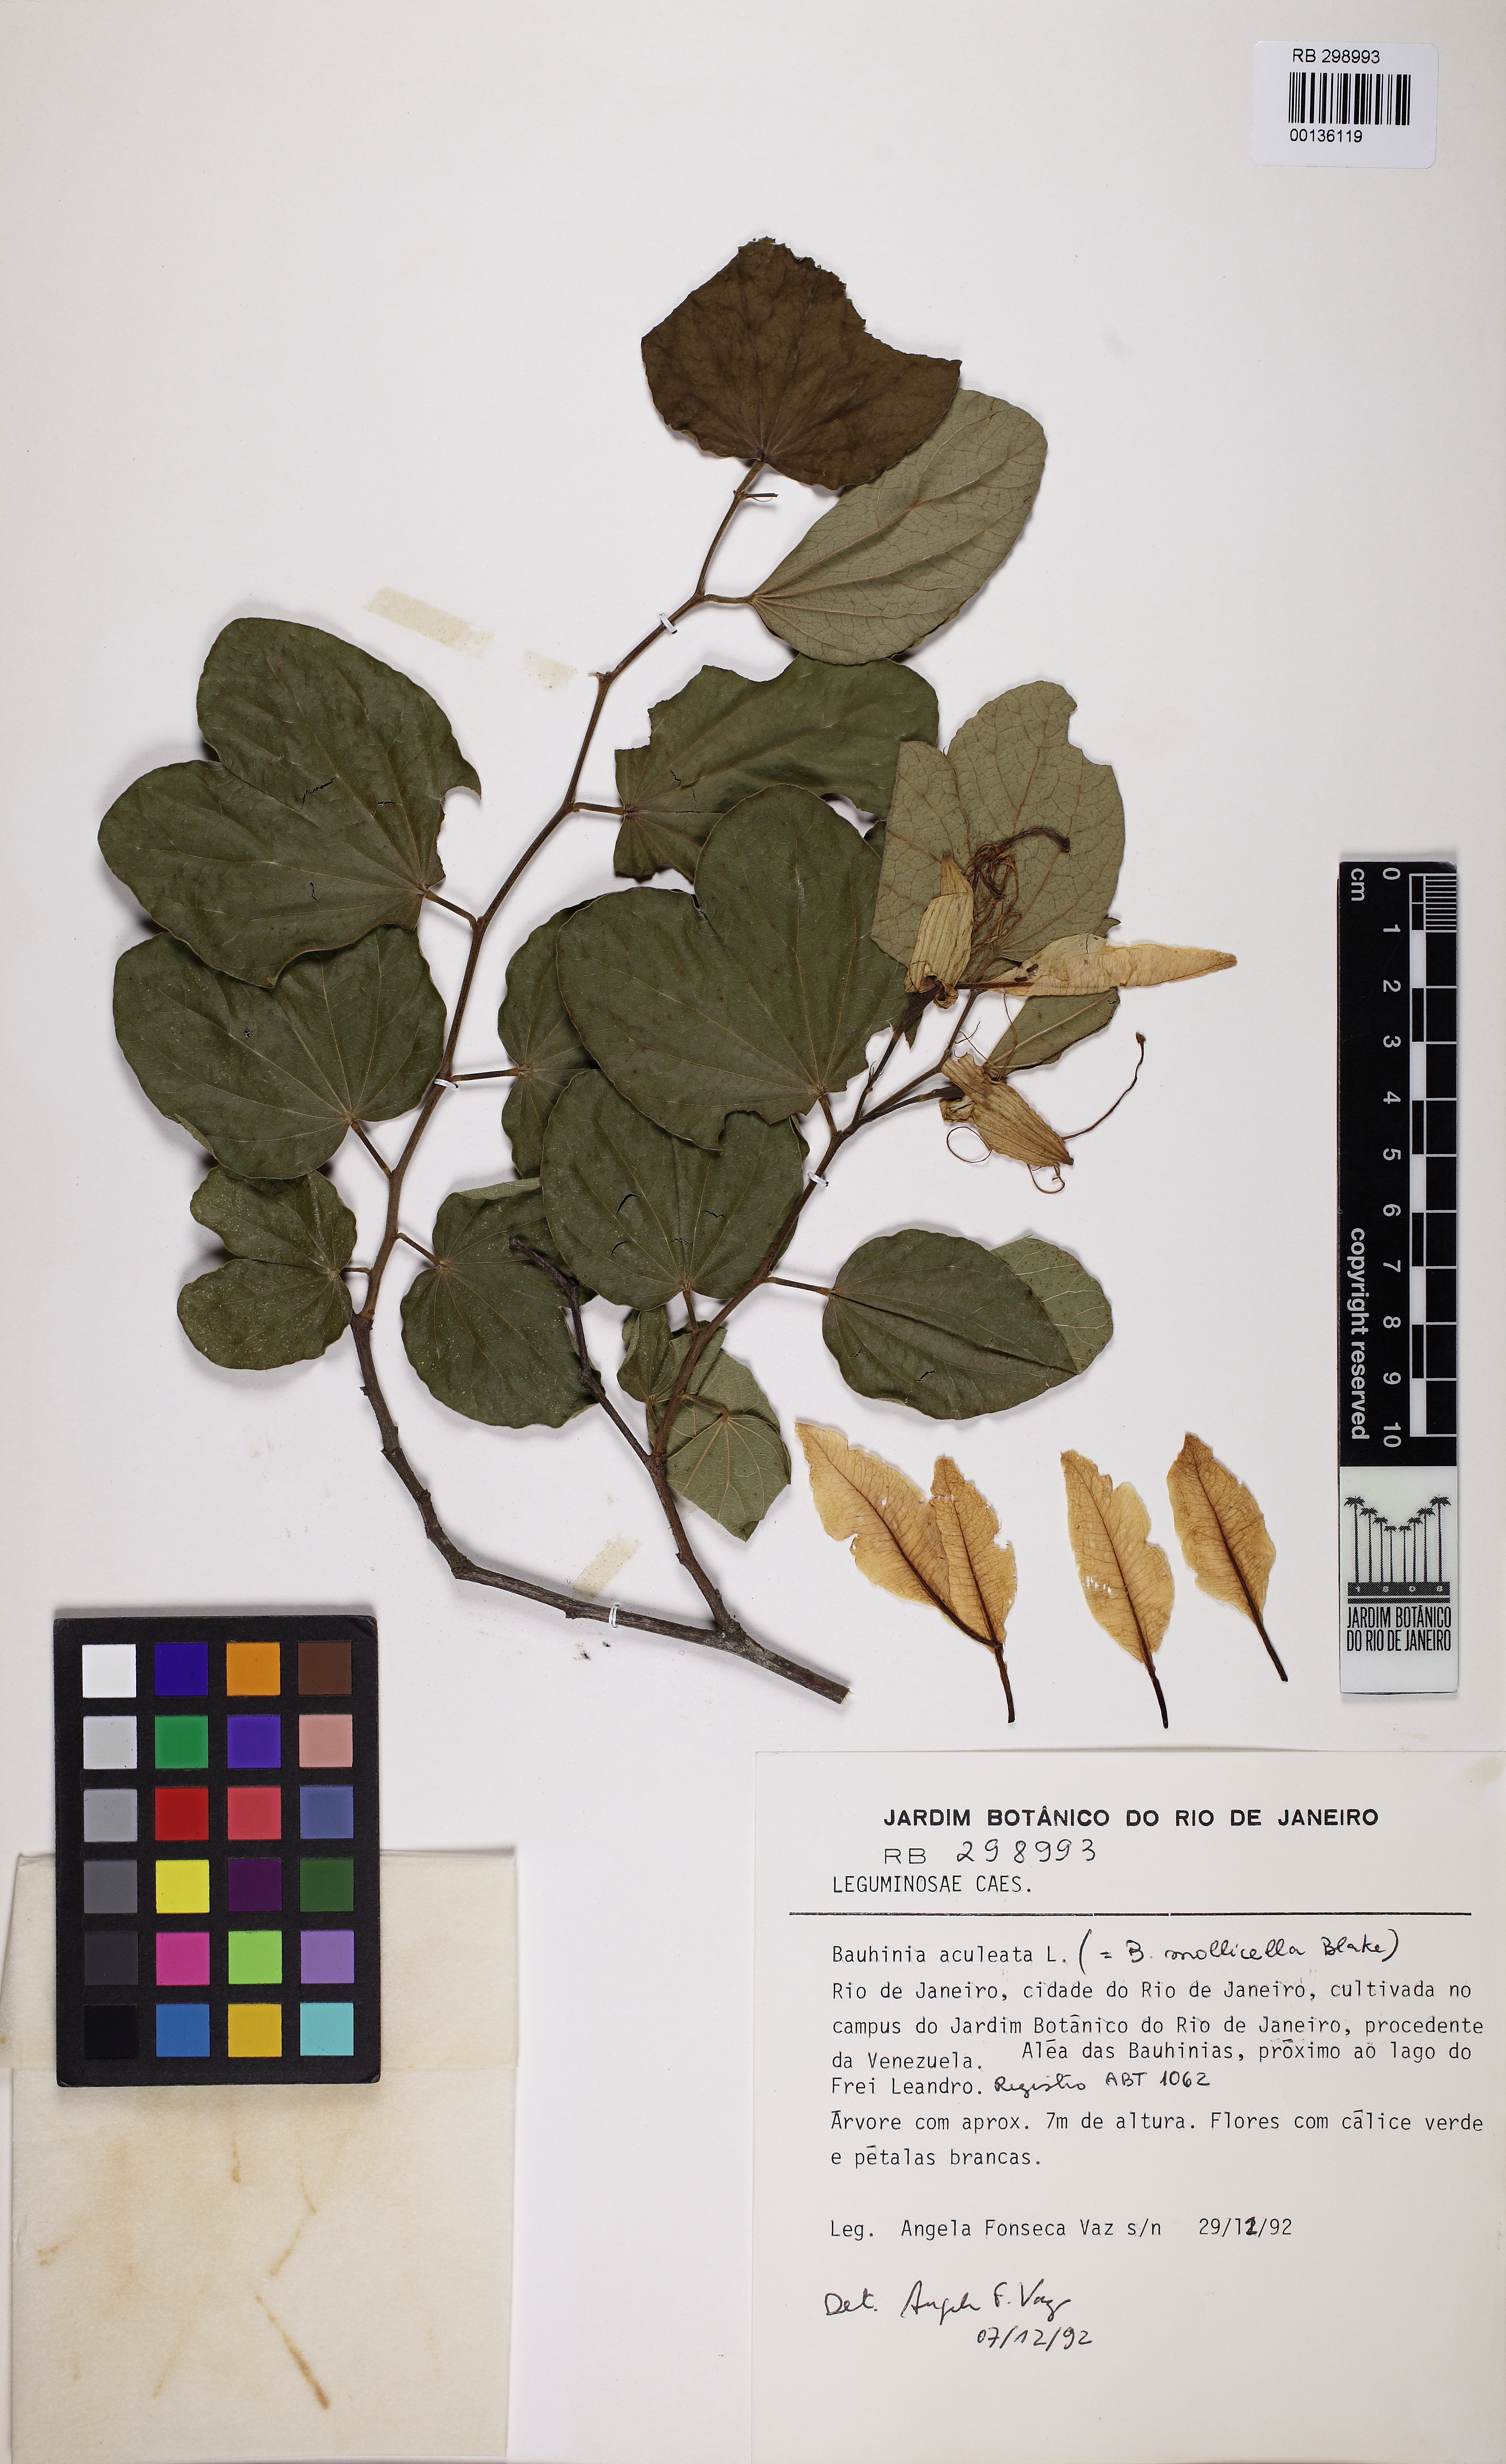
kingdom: Plantae
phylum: Tracheophyta
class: Magnoliopsida
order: Fabales
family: Fabaceae
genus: Bauhinia
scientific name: Bauhinia aculeata
